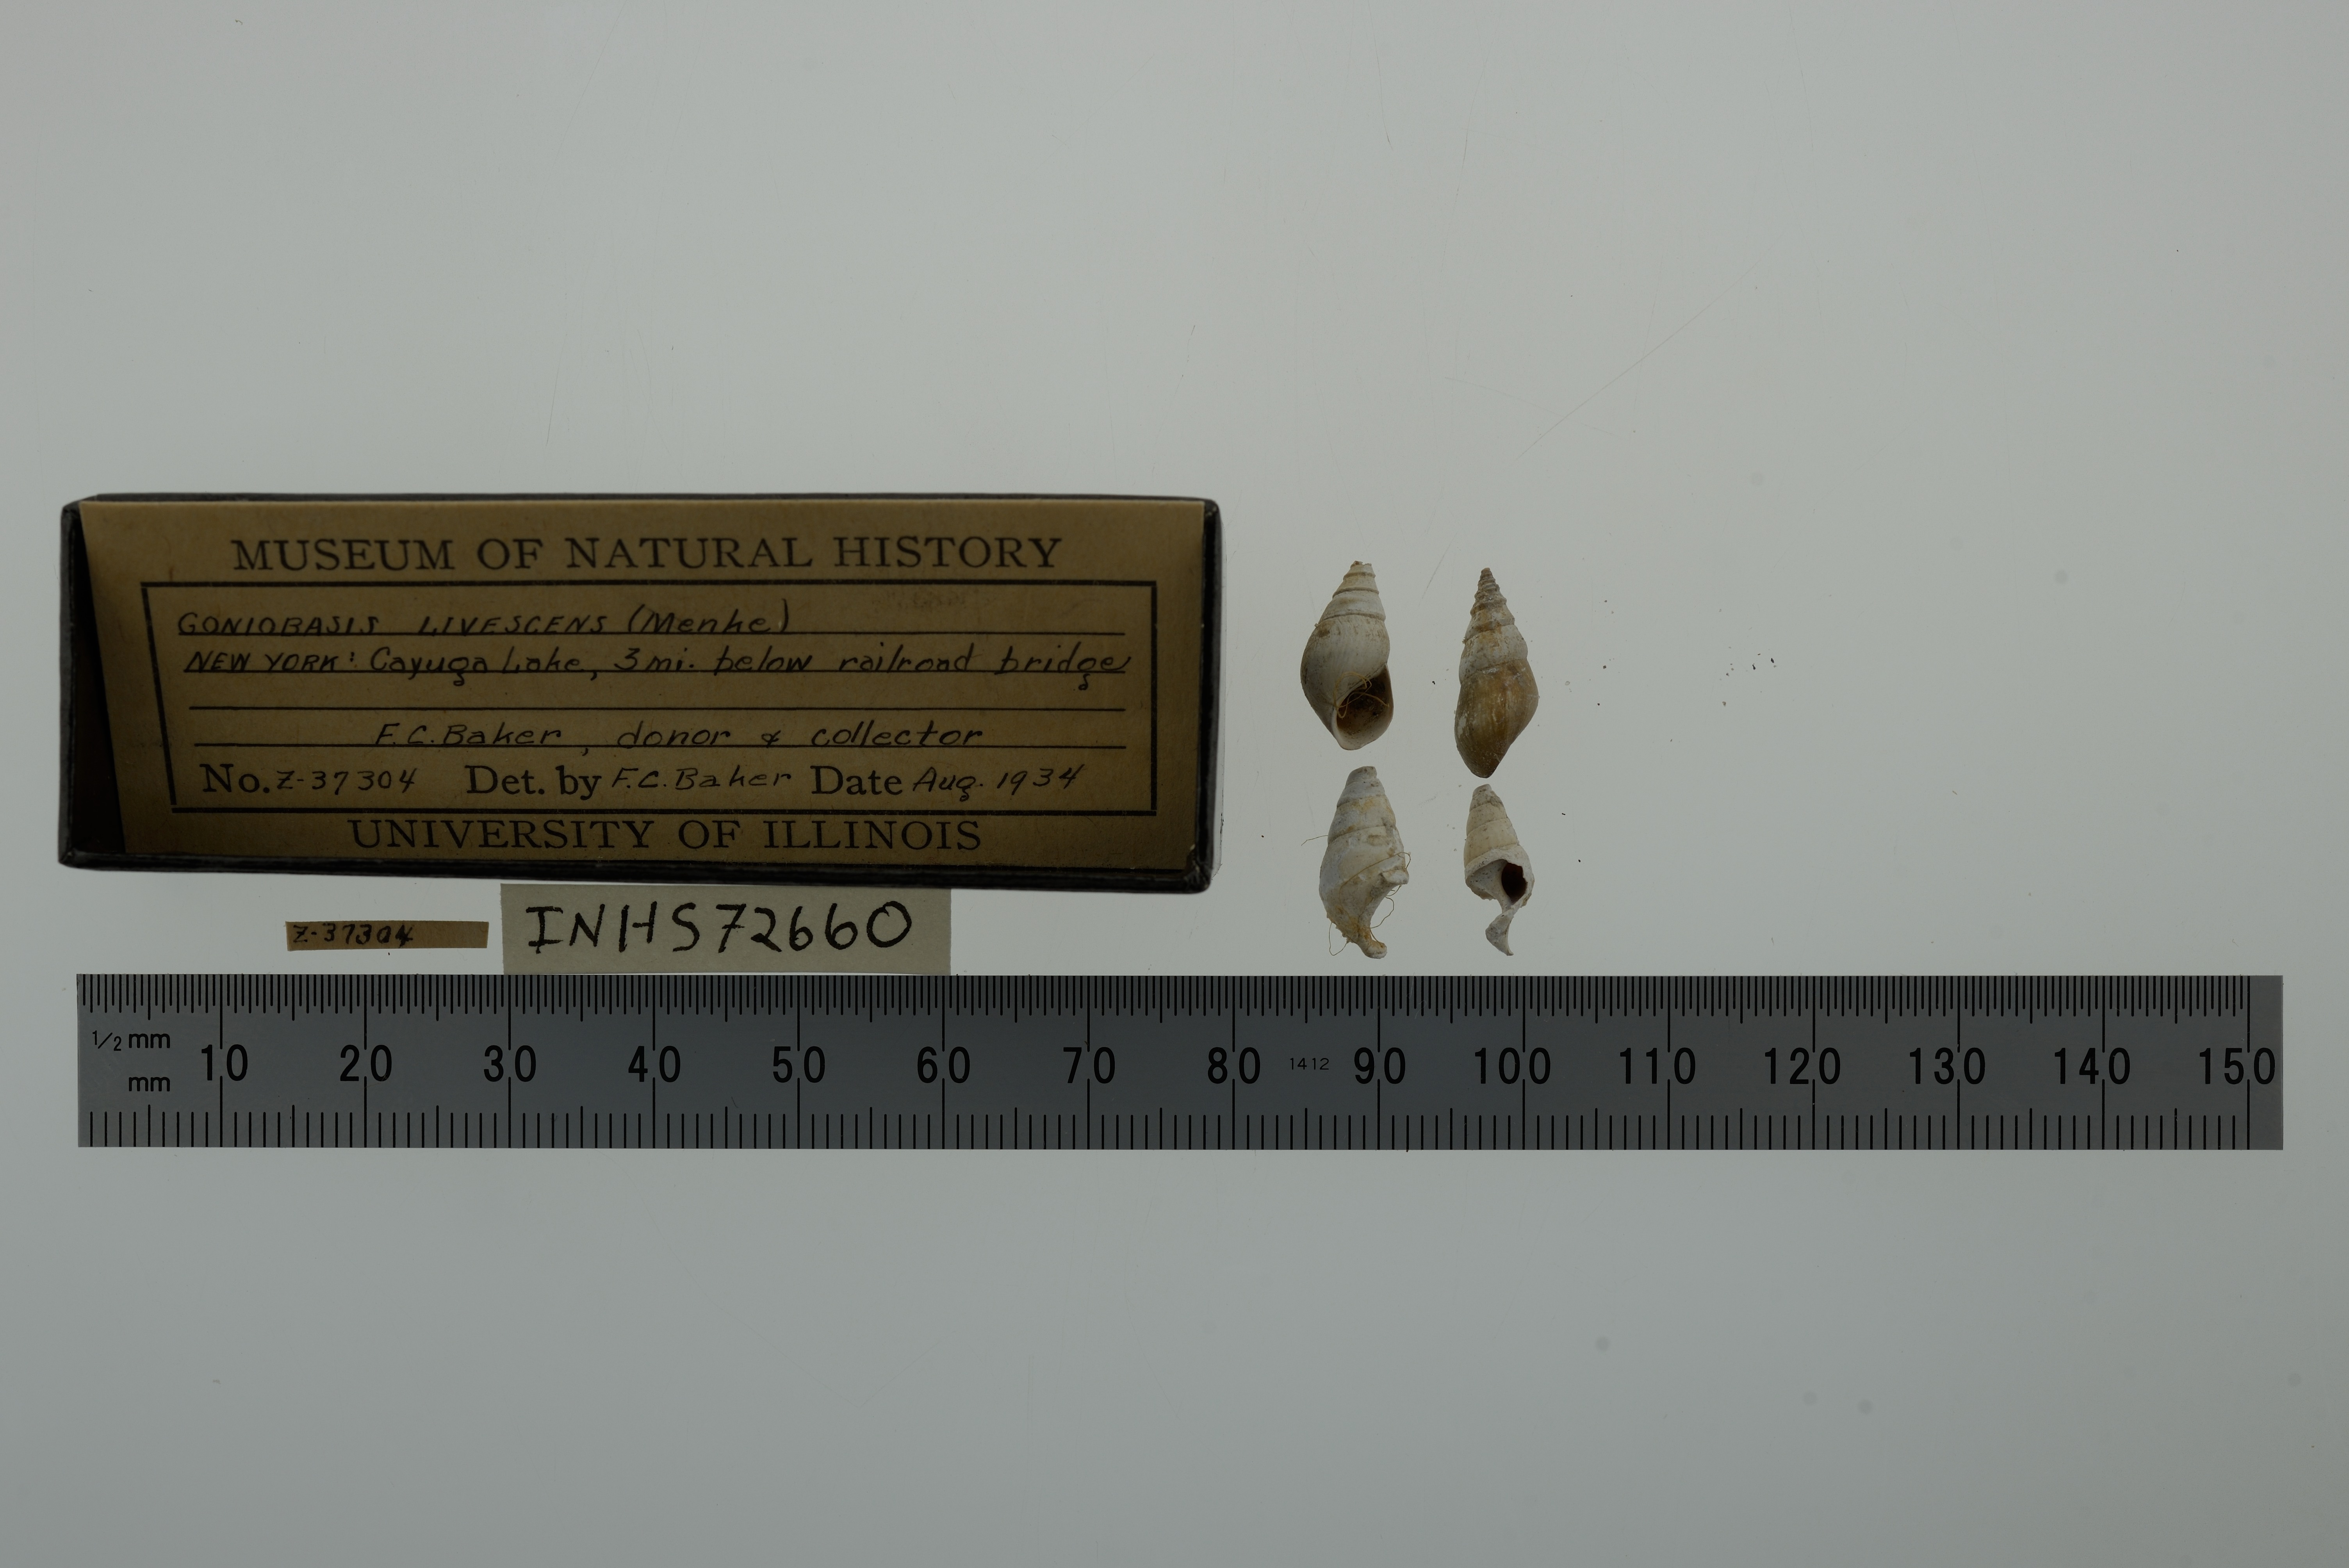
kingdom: Animalia
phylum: Mollusca
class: Gastropoda
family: Pleuroceridae
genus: Elimia
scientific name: Elimia livescens
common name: Liver elimia
